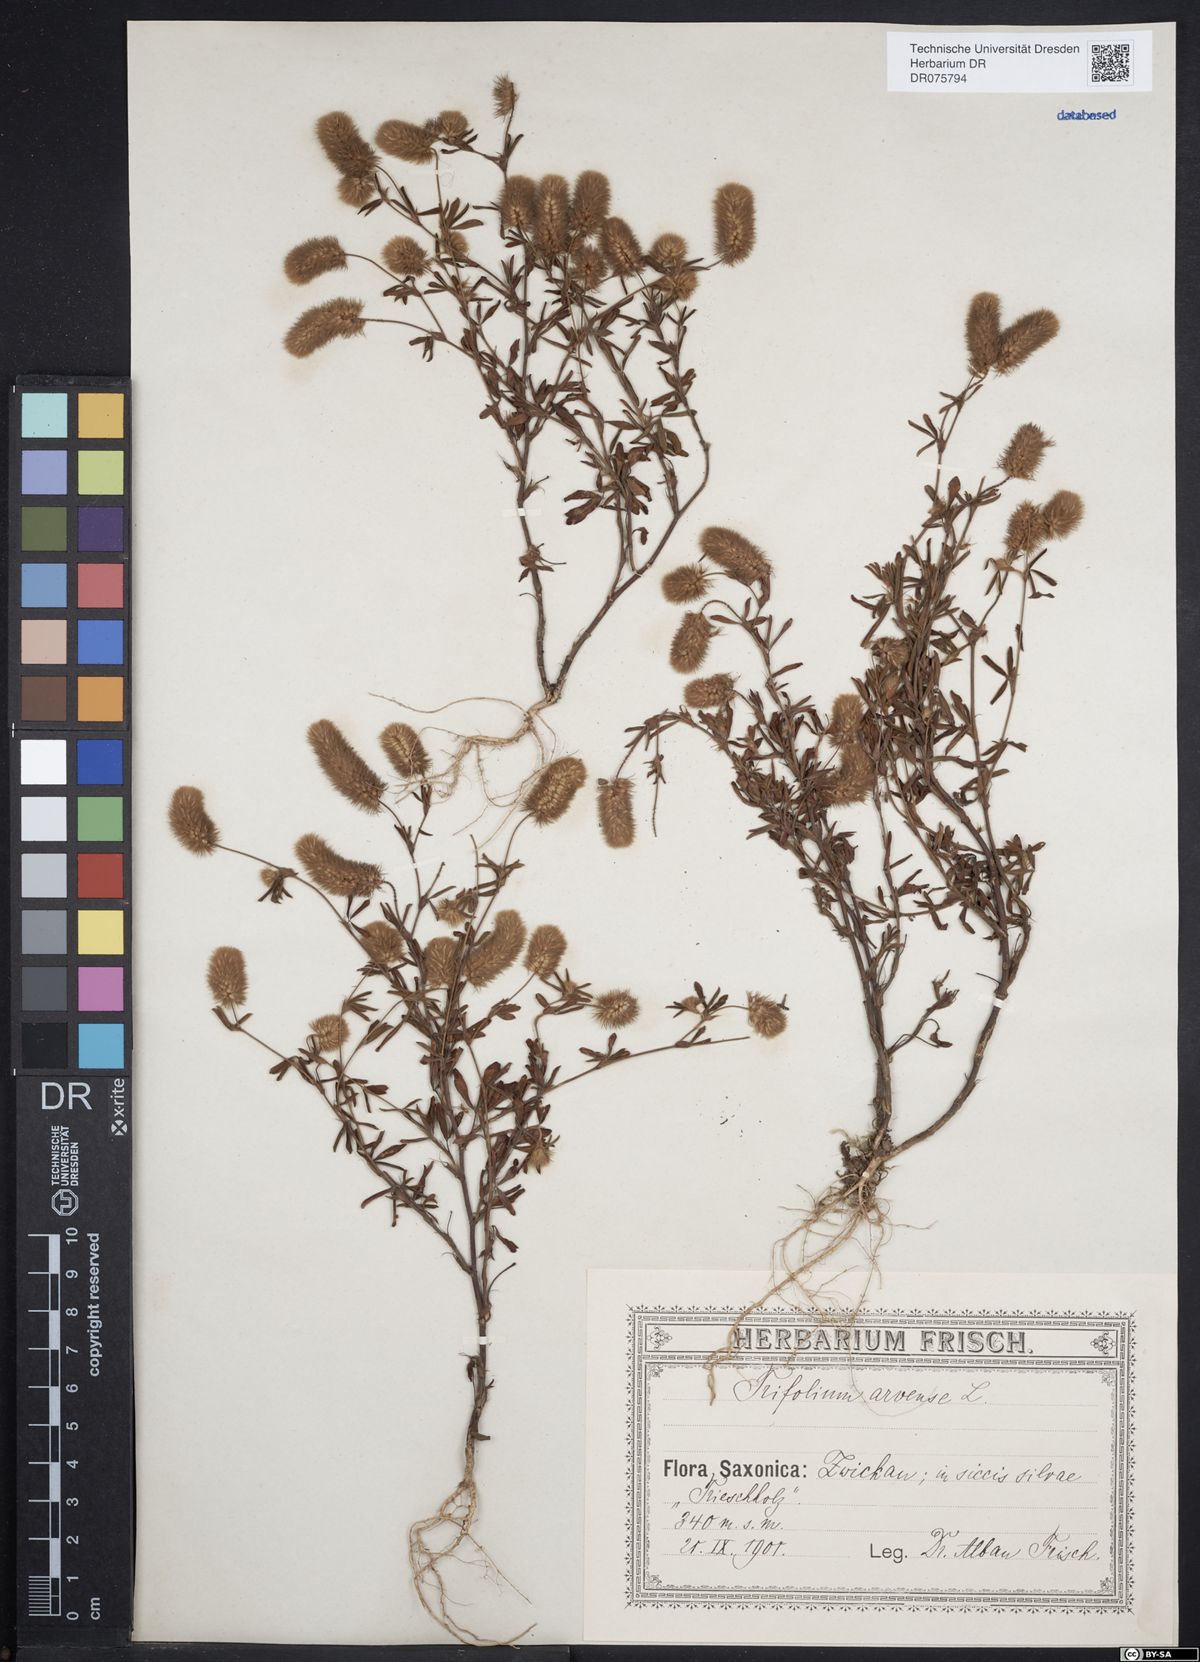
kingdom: Plantae
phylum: Tracheophyta
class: Magnoliopsida
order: Fabales
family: Fabaceae
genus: Trifolium
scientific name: Trifolium arvense
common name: Hare's-foot clover
